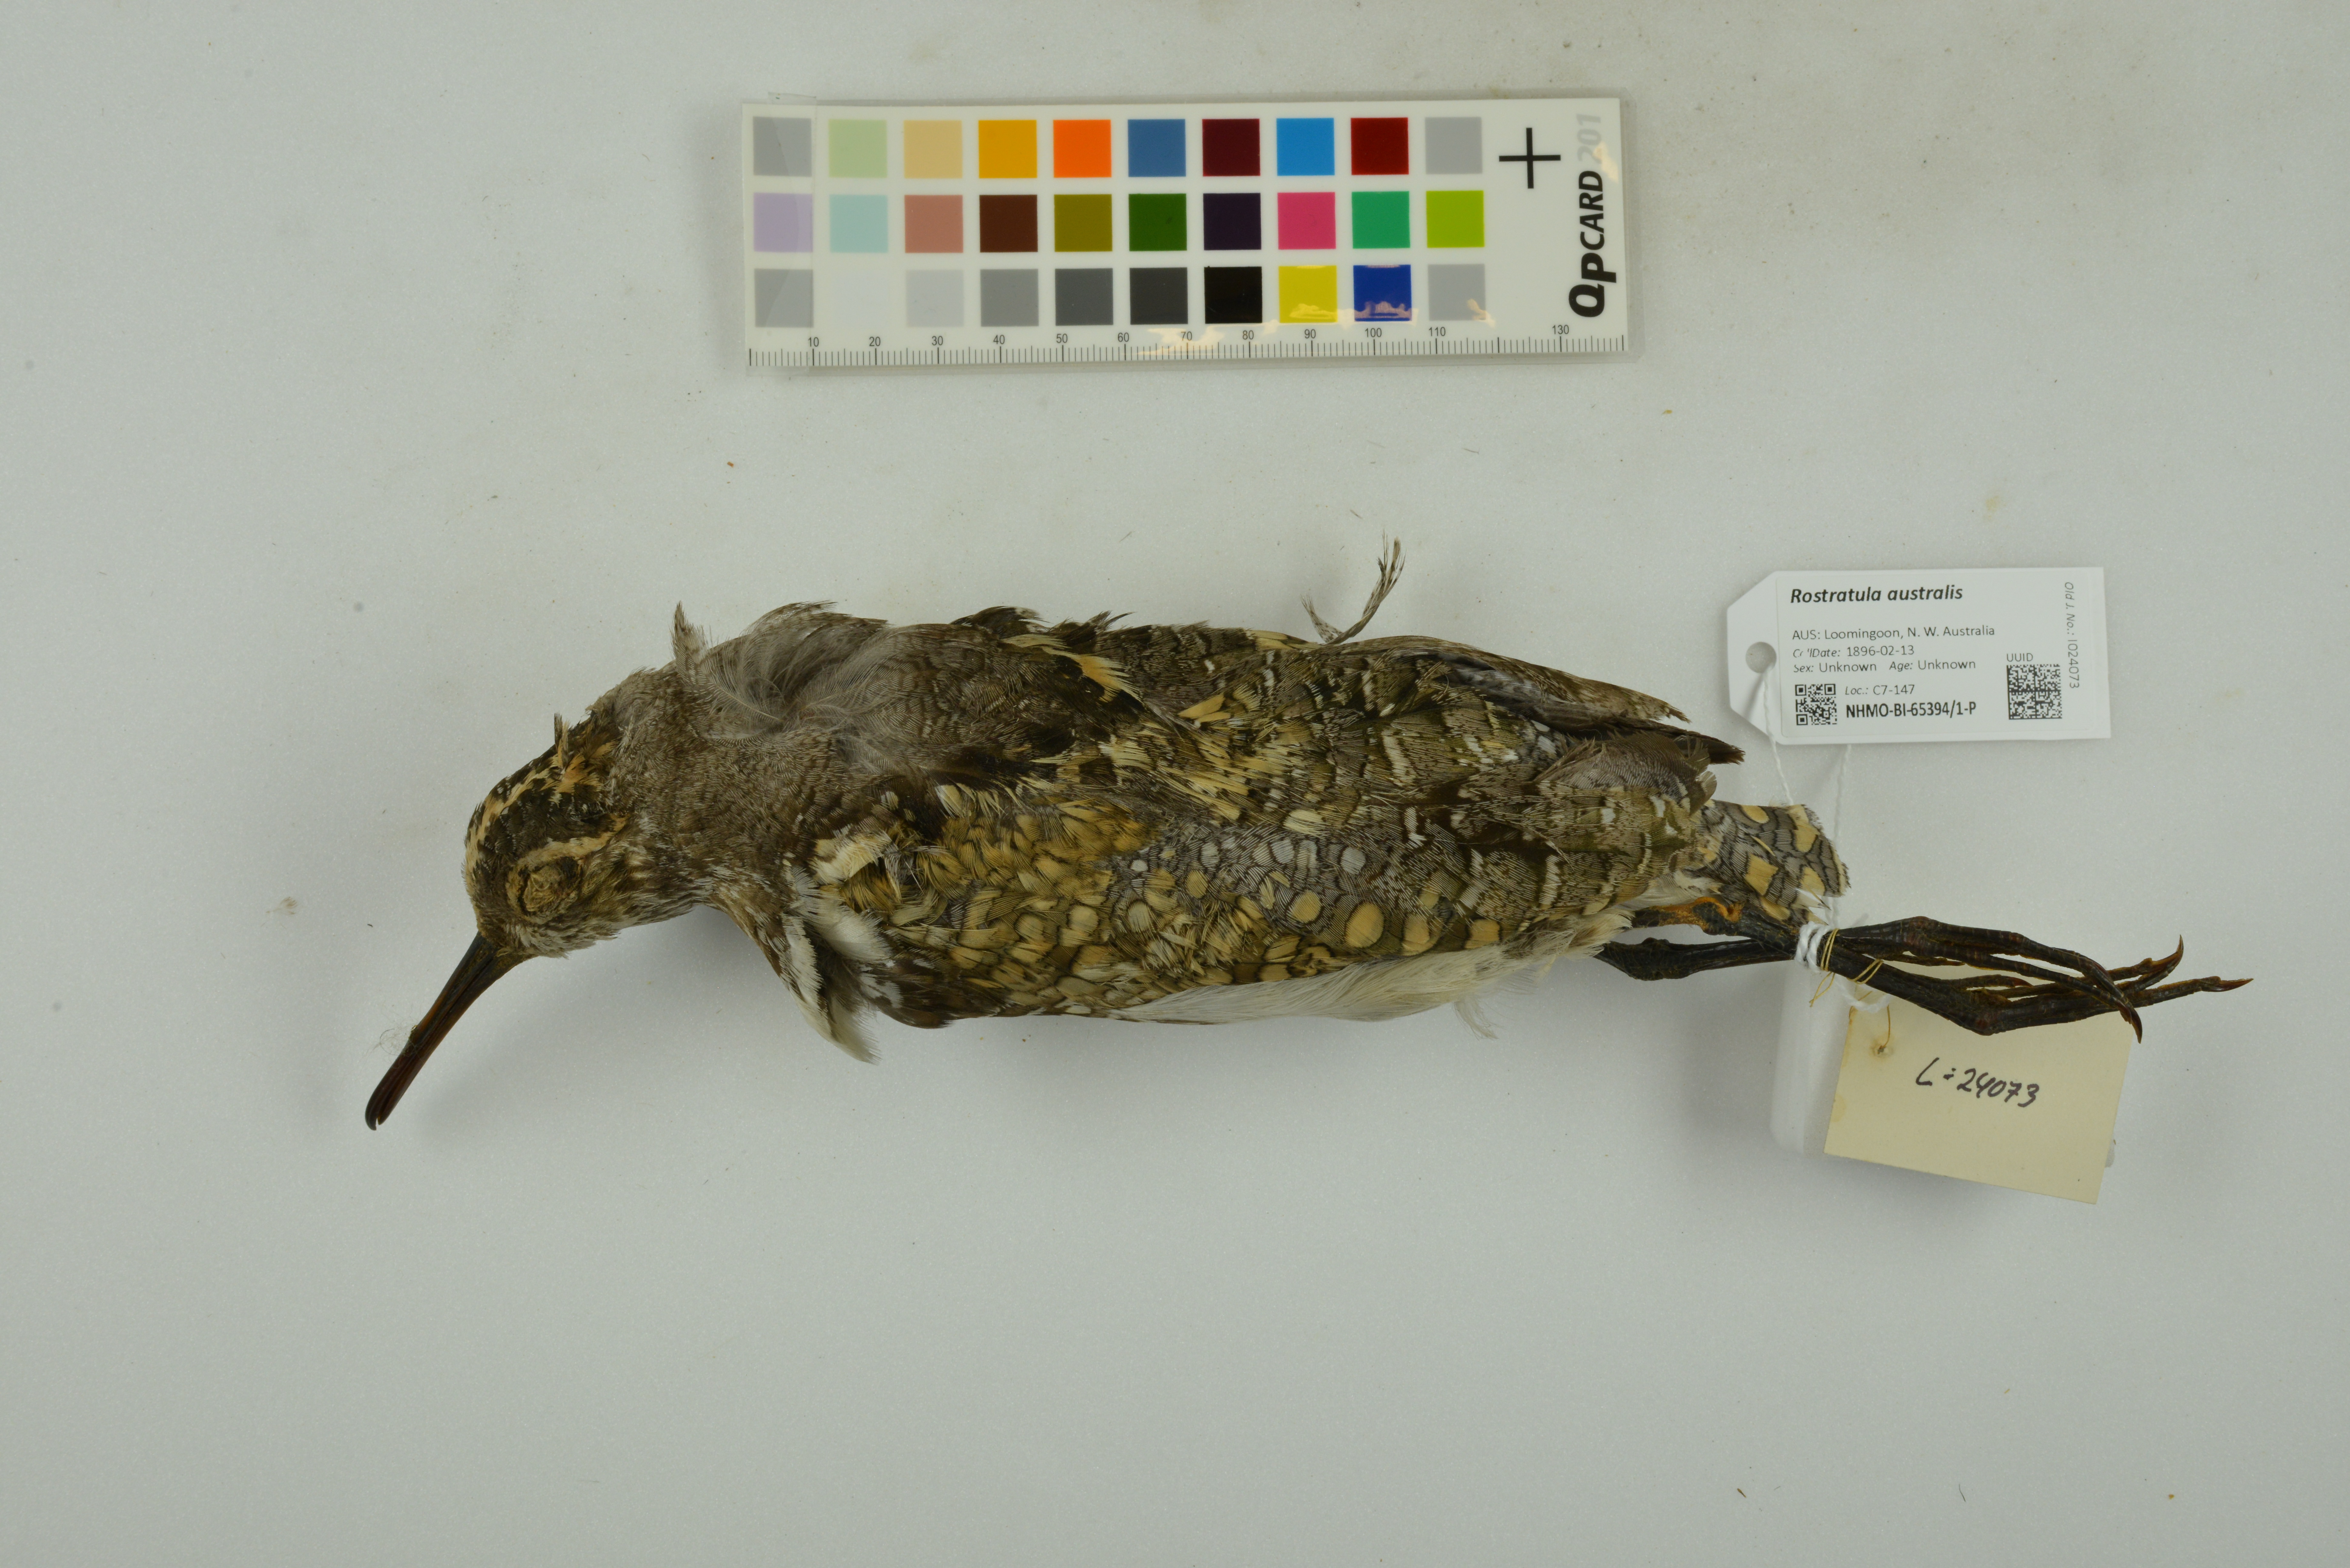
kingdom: Animalia
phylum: Chordata
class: Aves
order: Charadriiformes
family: Rostratulidae
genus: Rostratula
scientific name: Rostratula australis
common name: Australian painted-snipe
